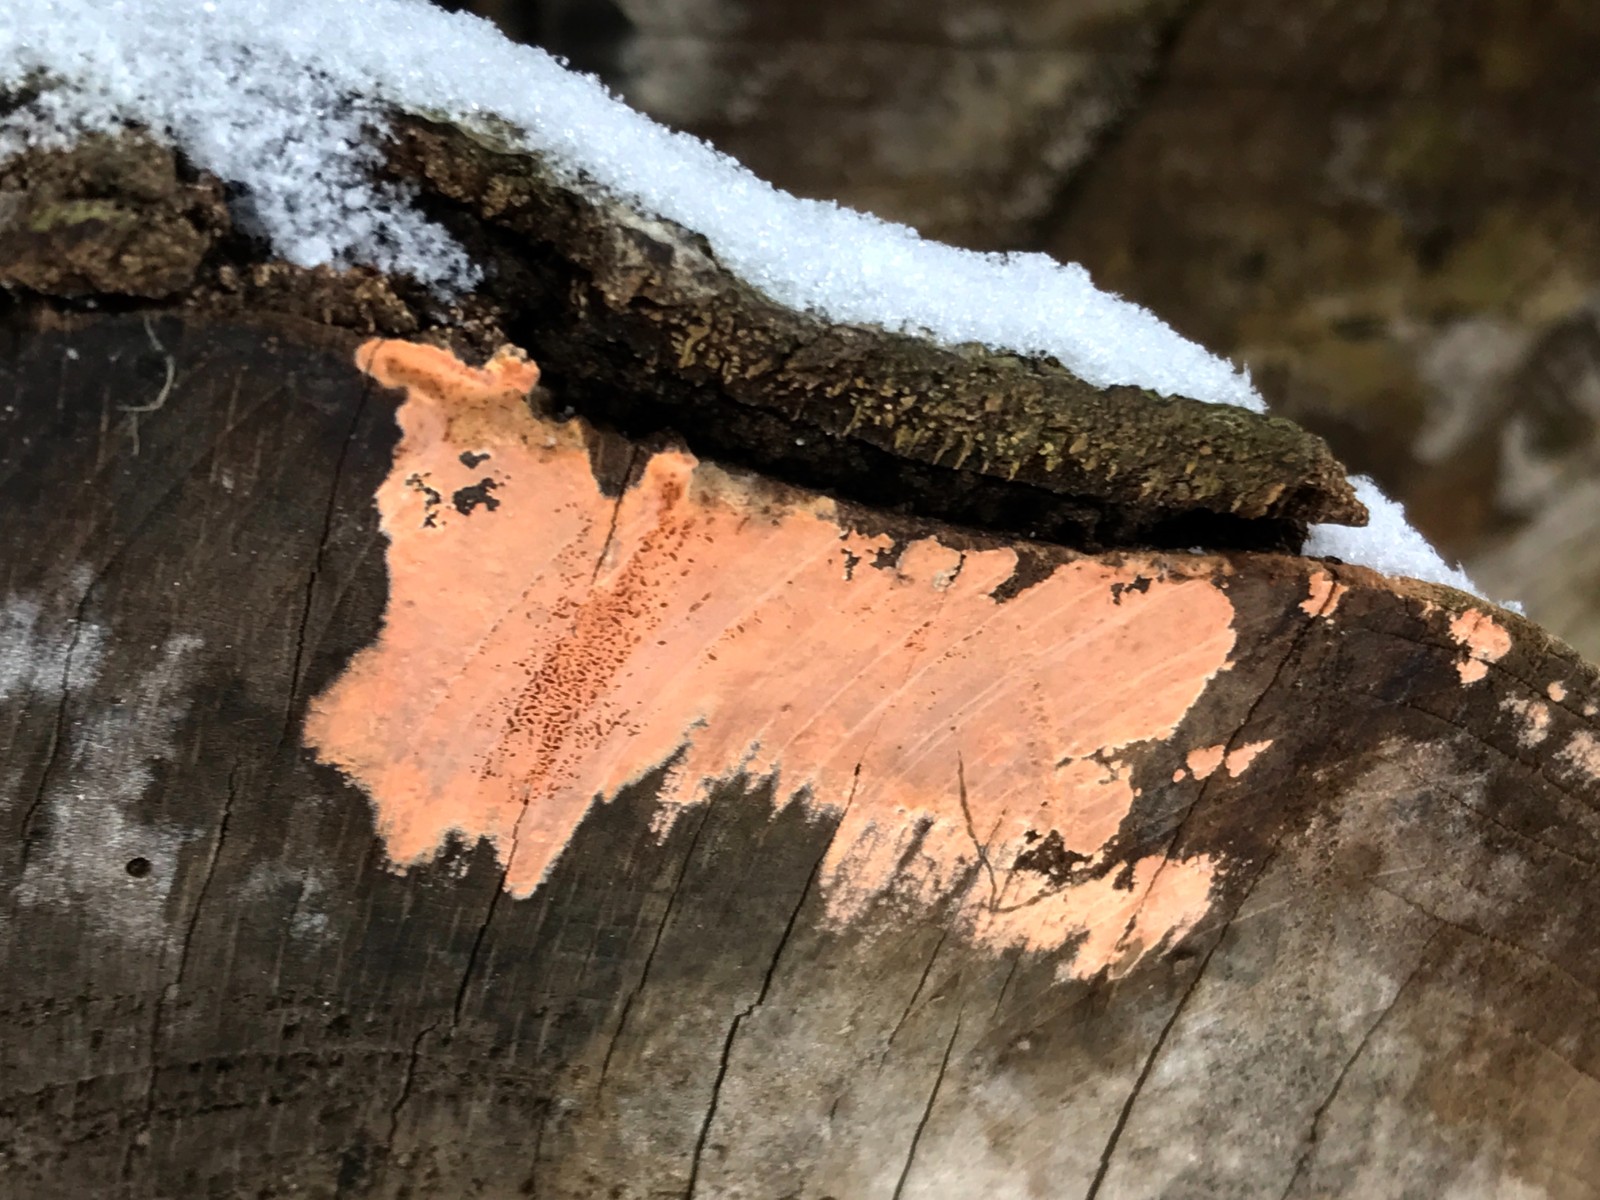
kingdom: Fungi
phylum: Basidiomycota
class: Agaricomycetes
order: Russulales
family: Peniophoraceae
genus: Peniophora
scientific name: Peniophora incarnata
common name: laksefarvet voksskind
